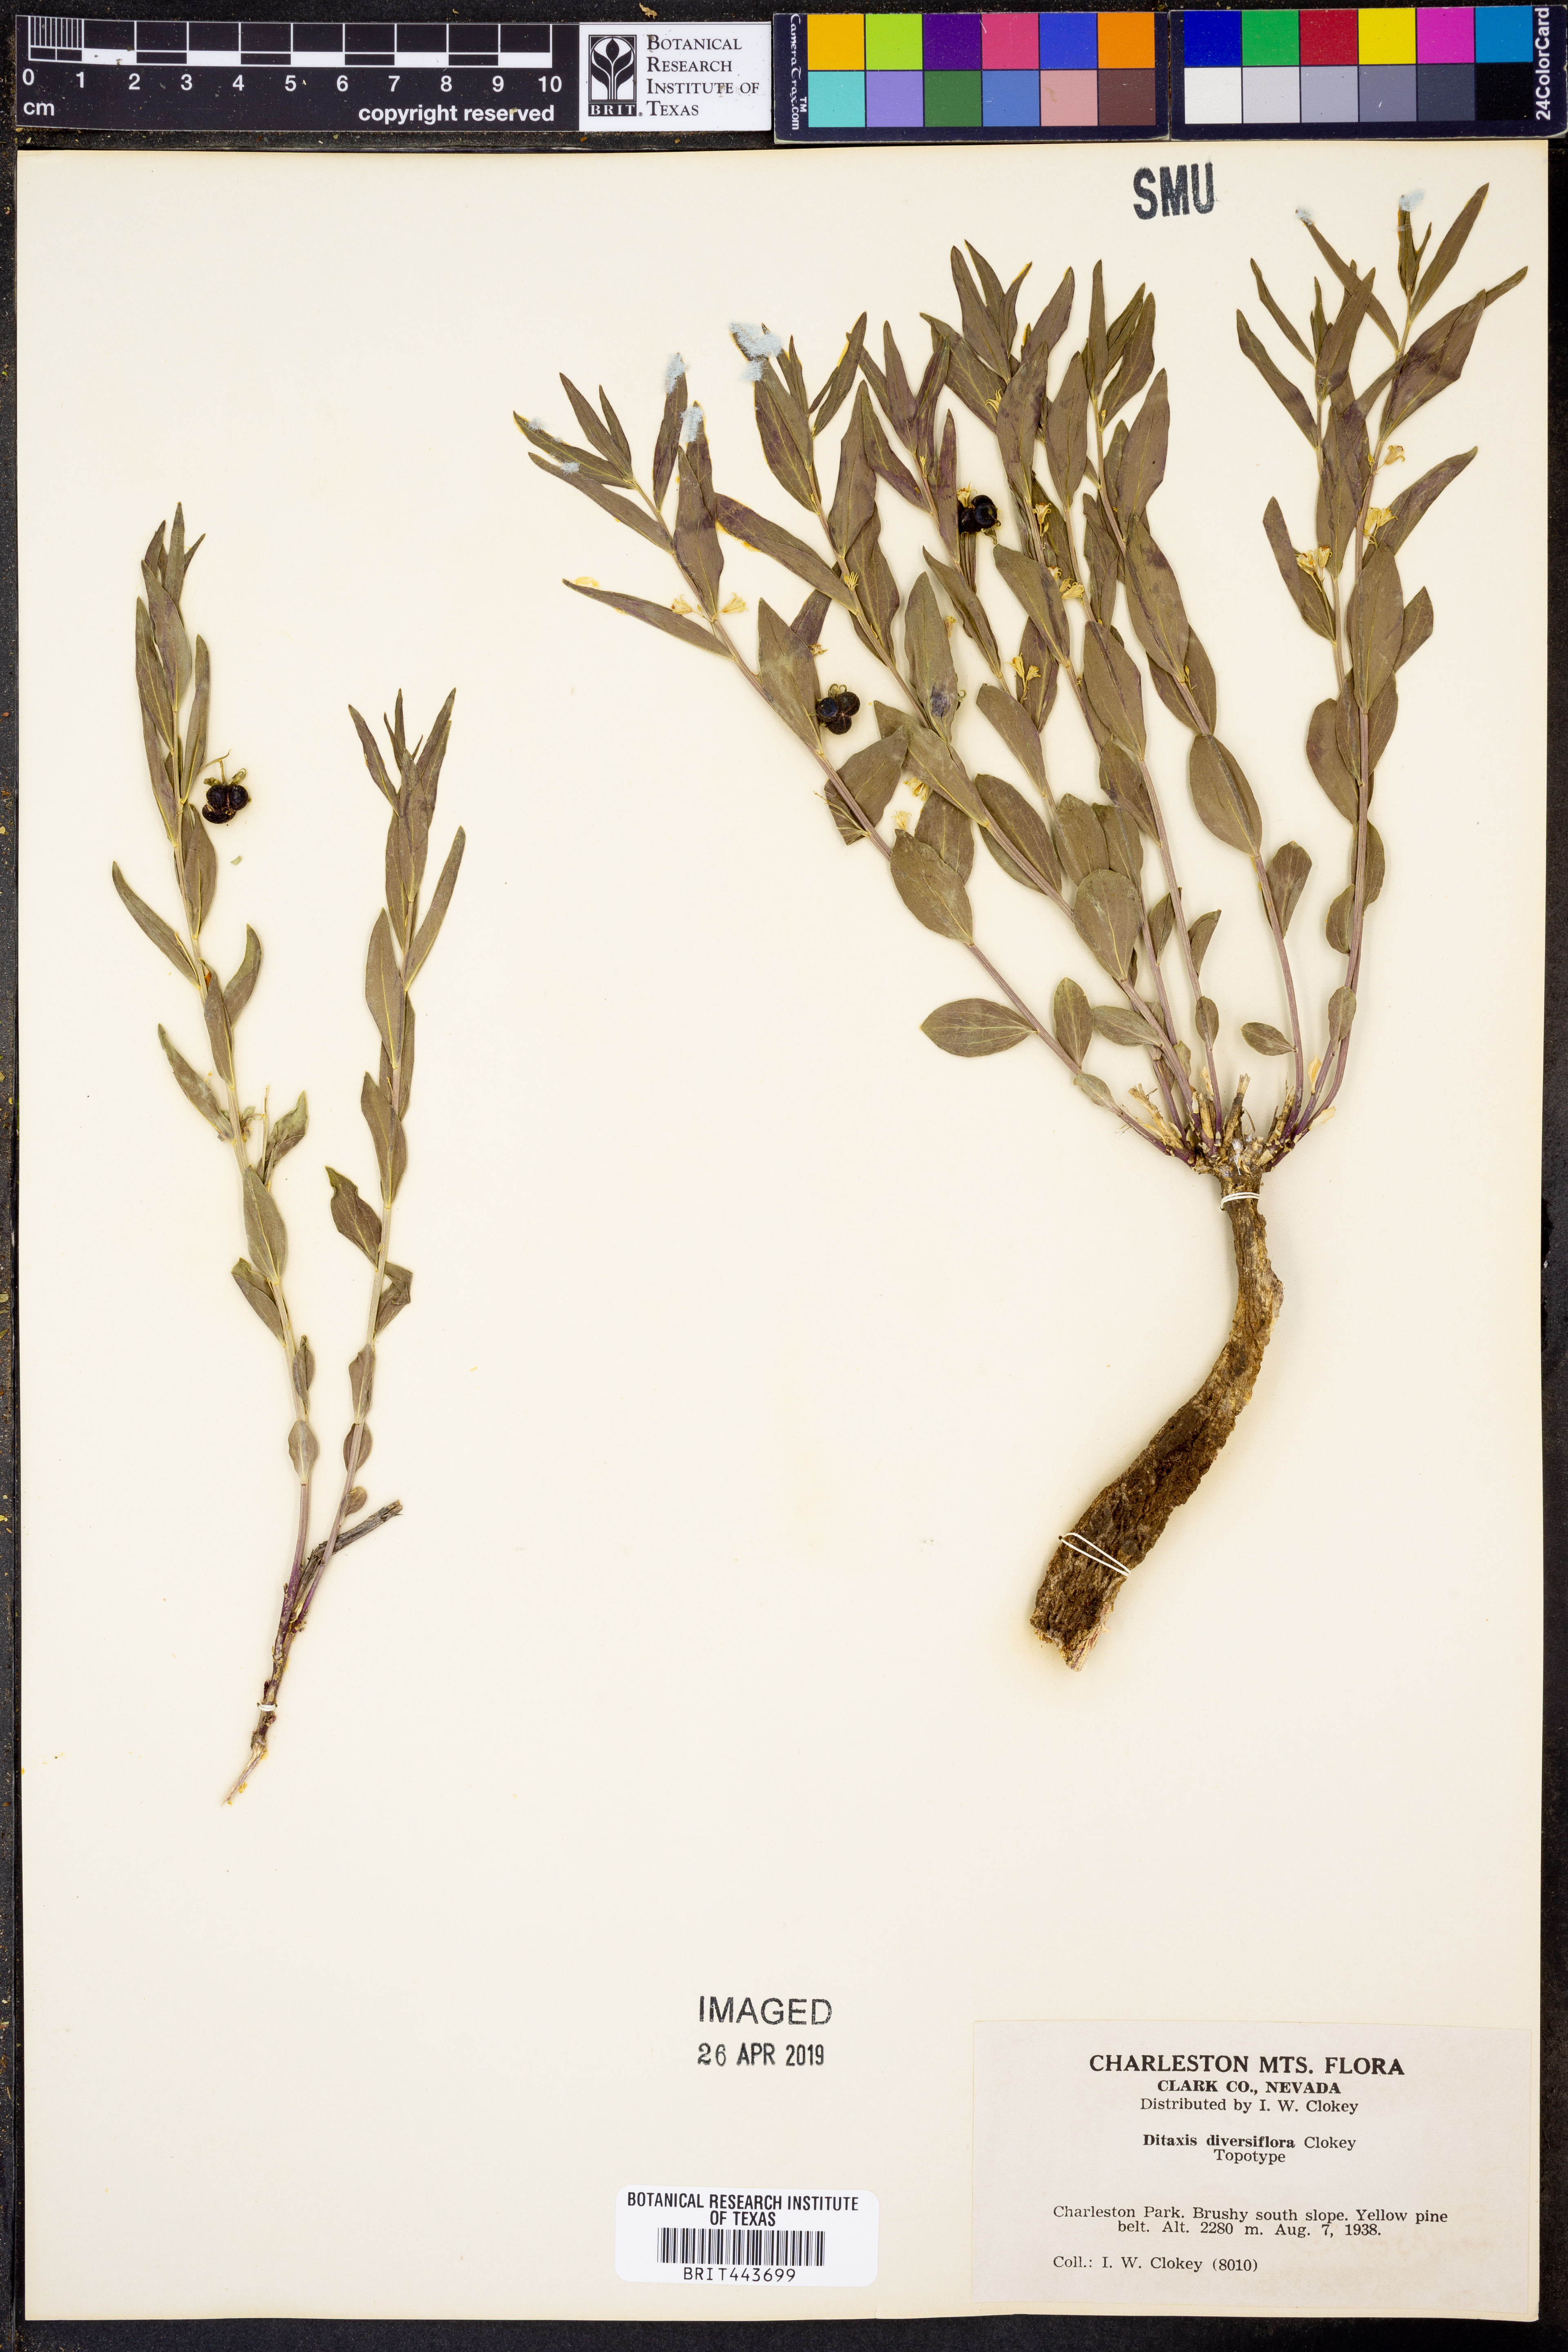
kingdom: Plantae
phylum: Tracheophyta
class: Magnoliopsida
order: Malpighiales
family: Euphorbiaceae
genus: Ditaxis
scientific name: Ditaxis cyanophylla
